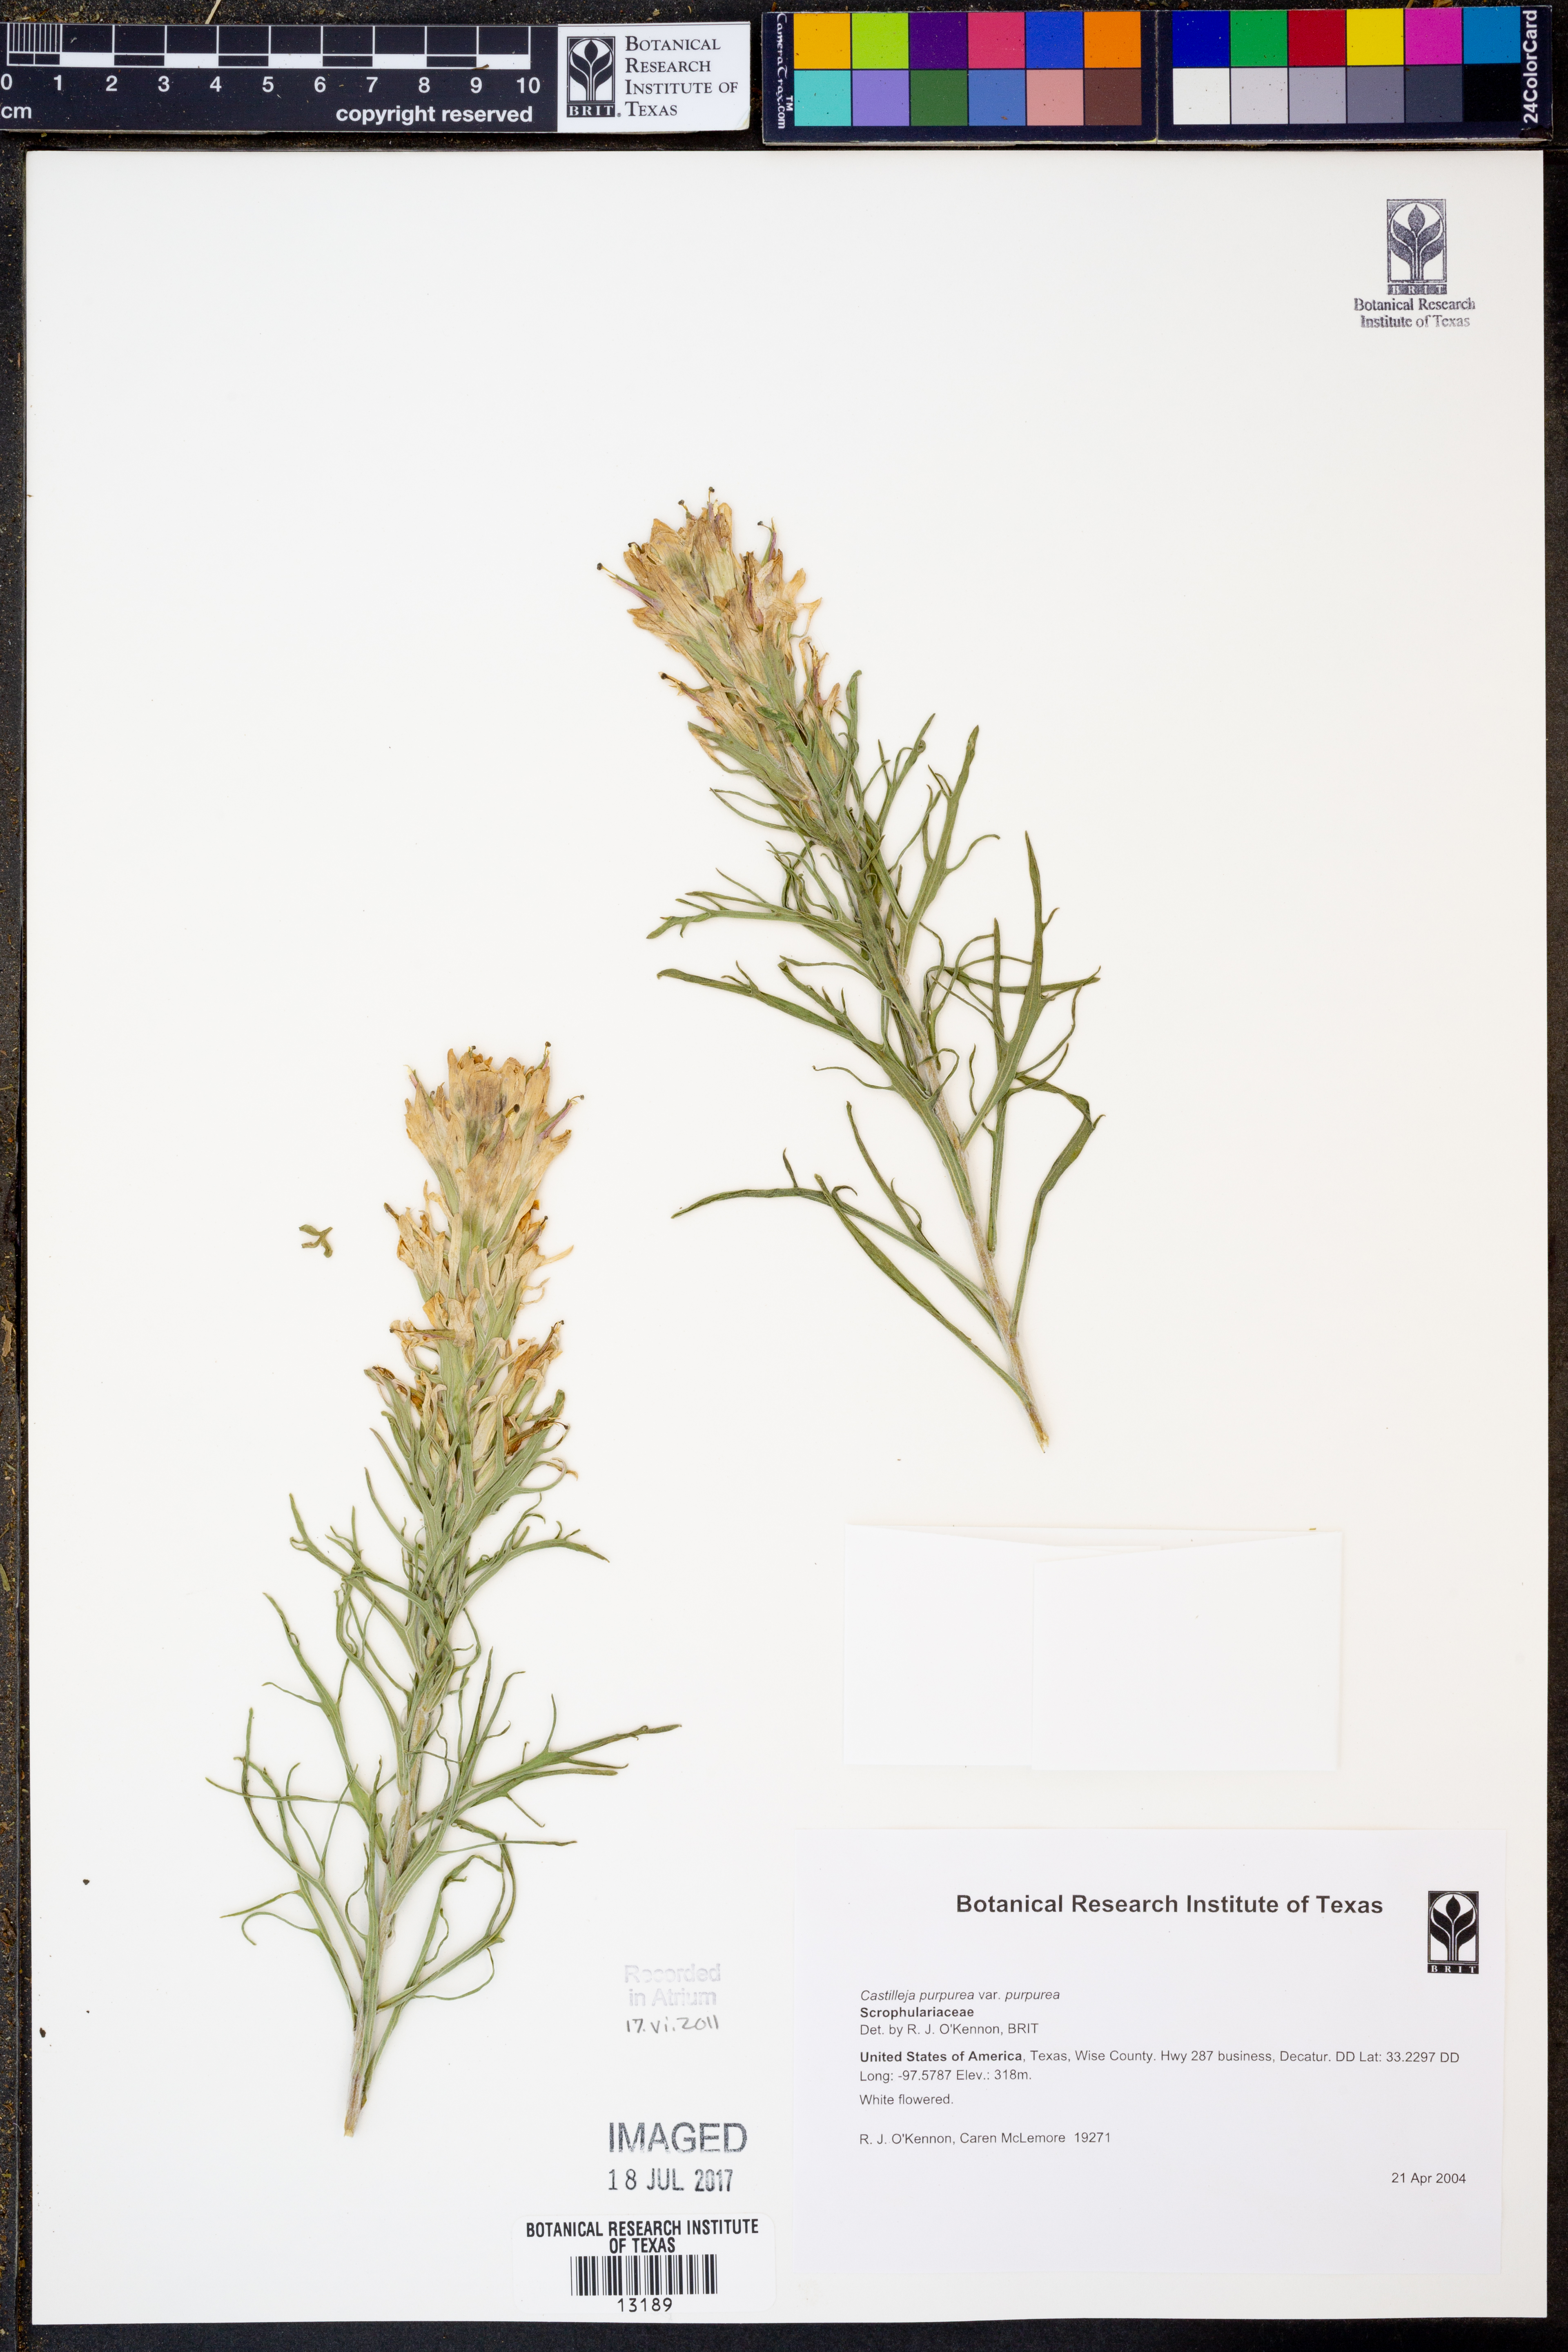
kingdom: Plantae
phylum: Tracheophyta
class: Magnoliopsida
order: Lamiales
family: Orobanchaceae
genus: Castilleja
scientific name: Castilleja purpurea
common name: Plains paintbrush
